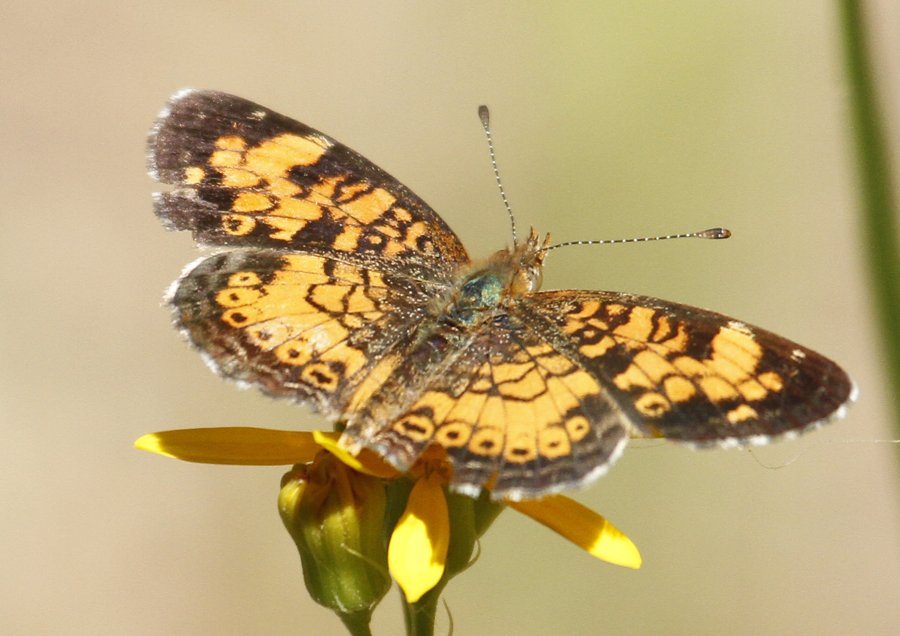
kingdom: Animalia
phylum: Arthropoda
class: Insecta
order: Lepidoptera
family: Nymphalidae
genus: Phyciodes
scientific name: Phyciodes tharos
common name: Pearl Crescent
